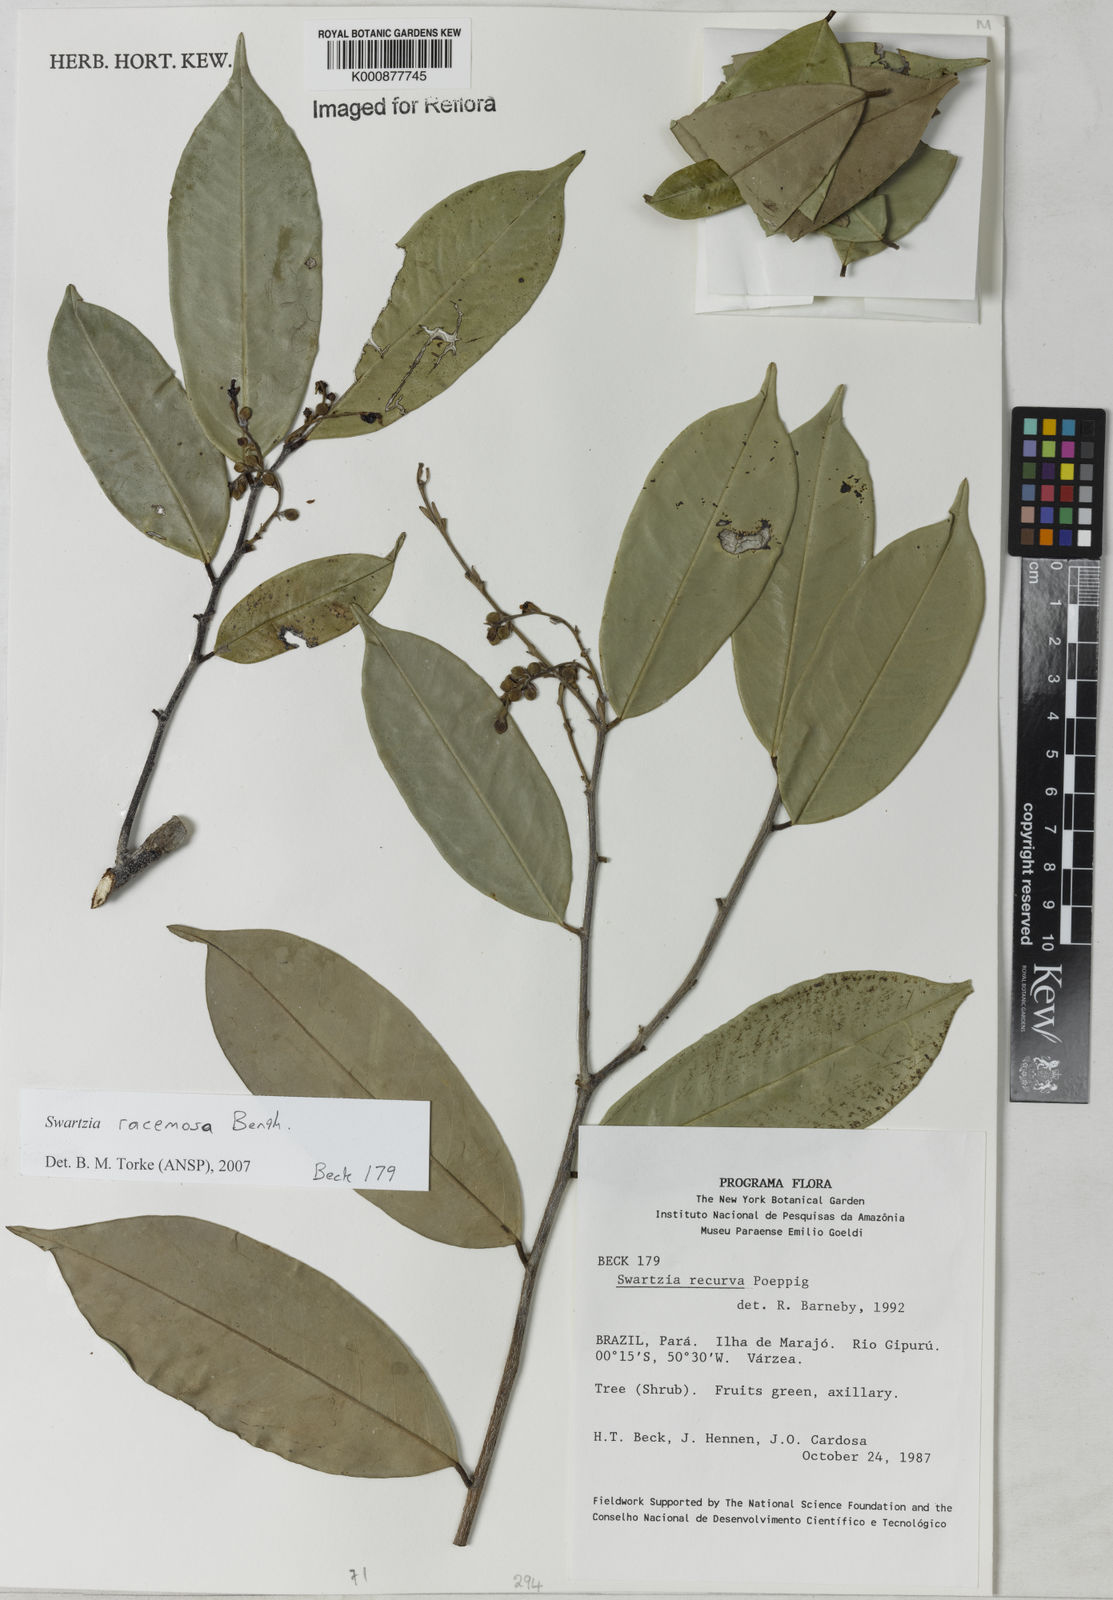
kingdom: Plantae
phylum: Tracheophyta
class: Magnoliopsida
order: Fabales
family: Fabaceae
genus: Swartzia
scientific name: Swartzia racemosa
